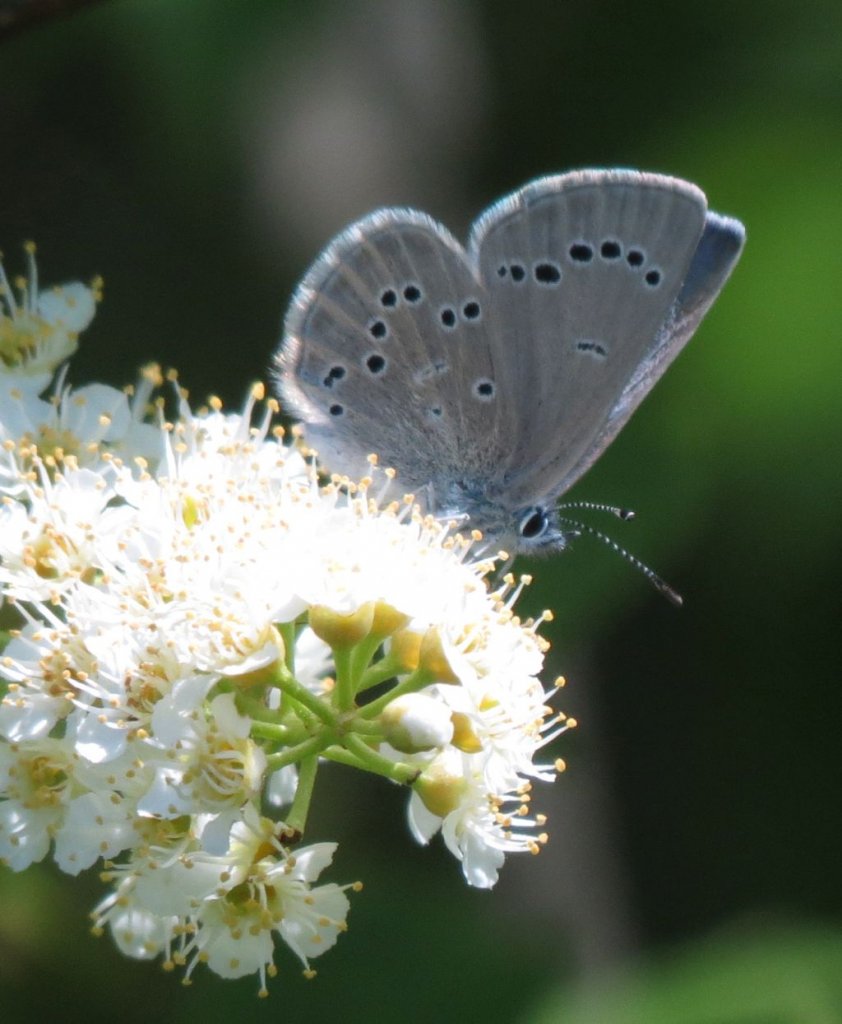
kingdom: Animalia
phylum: Arthropoda
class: Insecta
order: Lepidoptera
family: Lycaenidae
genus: Glaucopsyche
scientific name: Glaucopsyche lygdamus
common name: Silvery Blue
